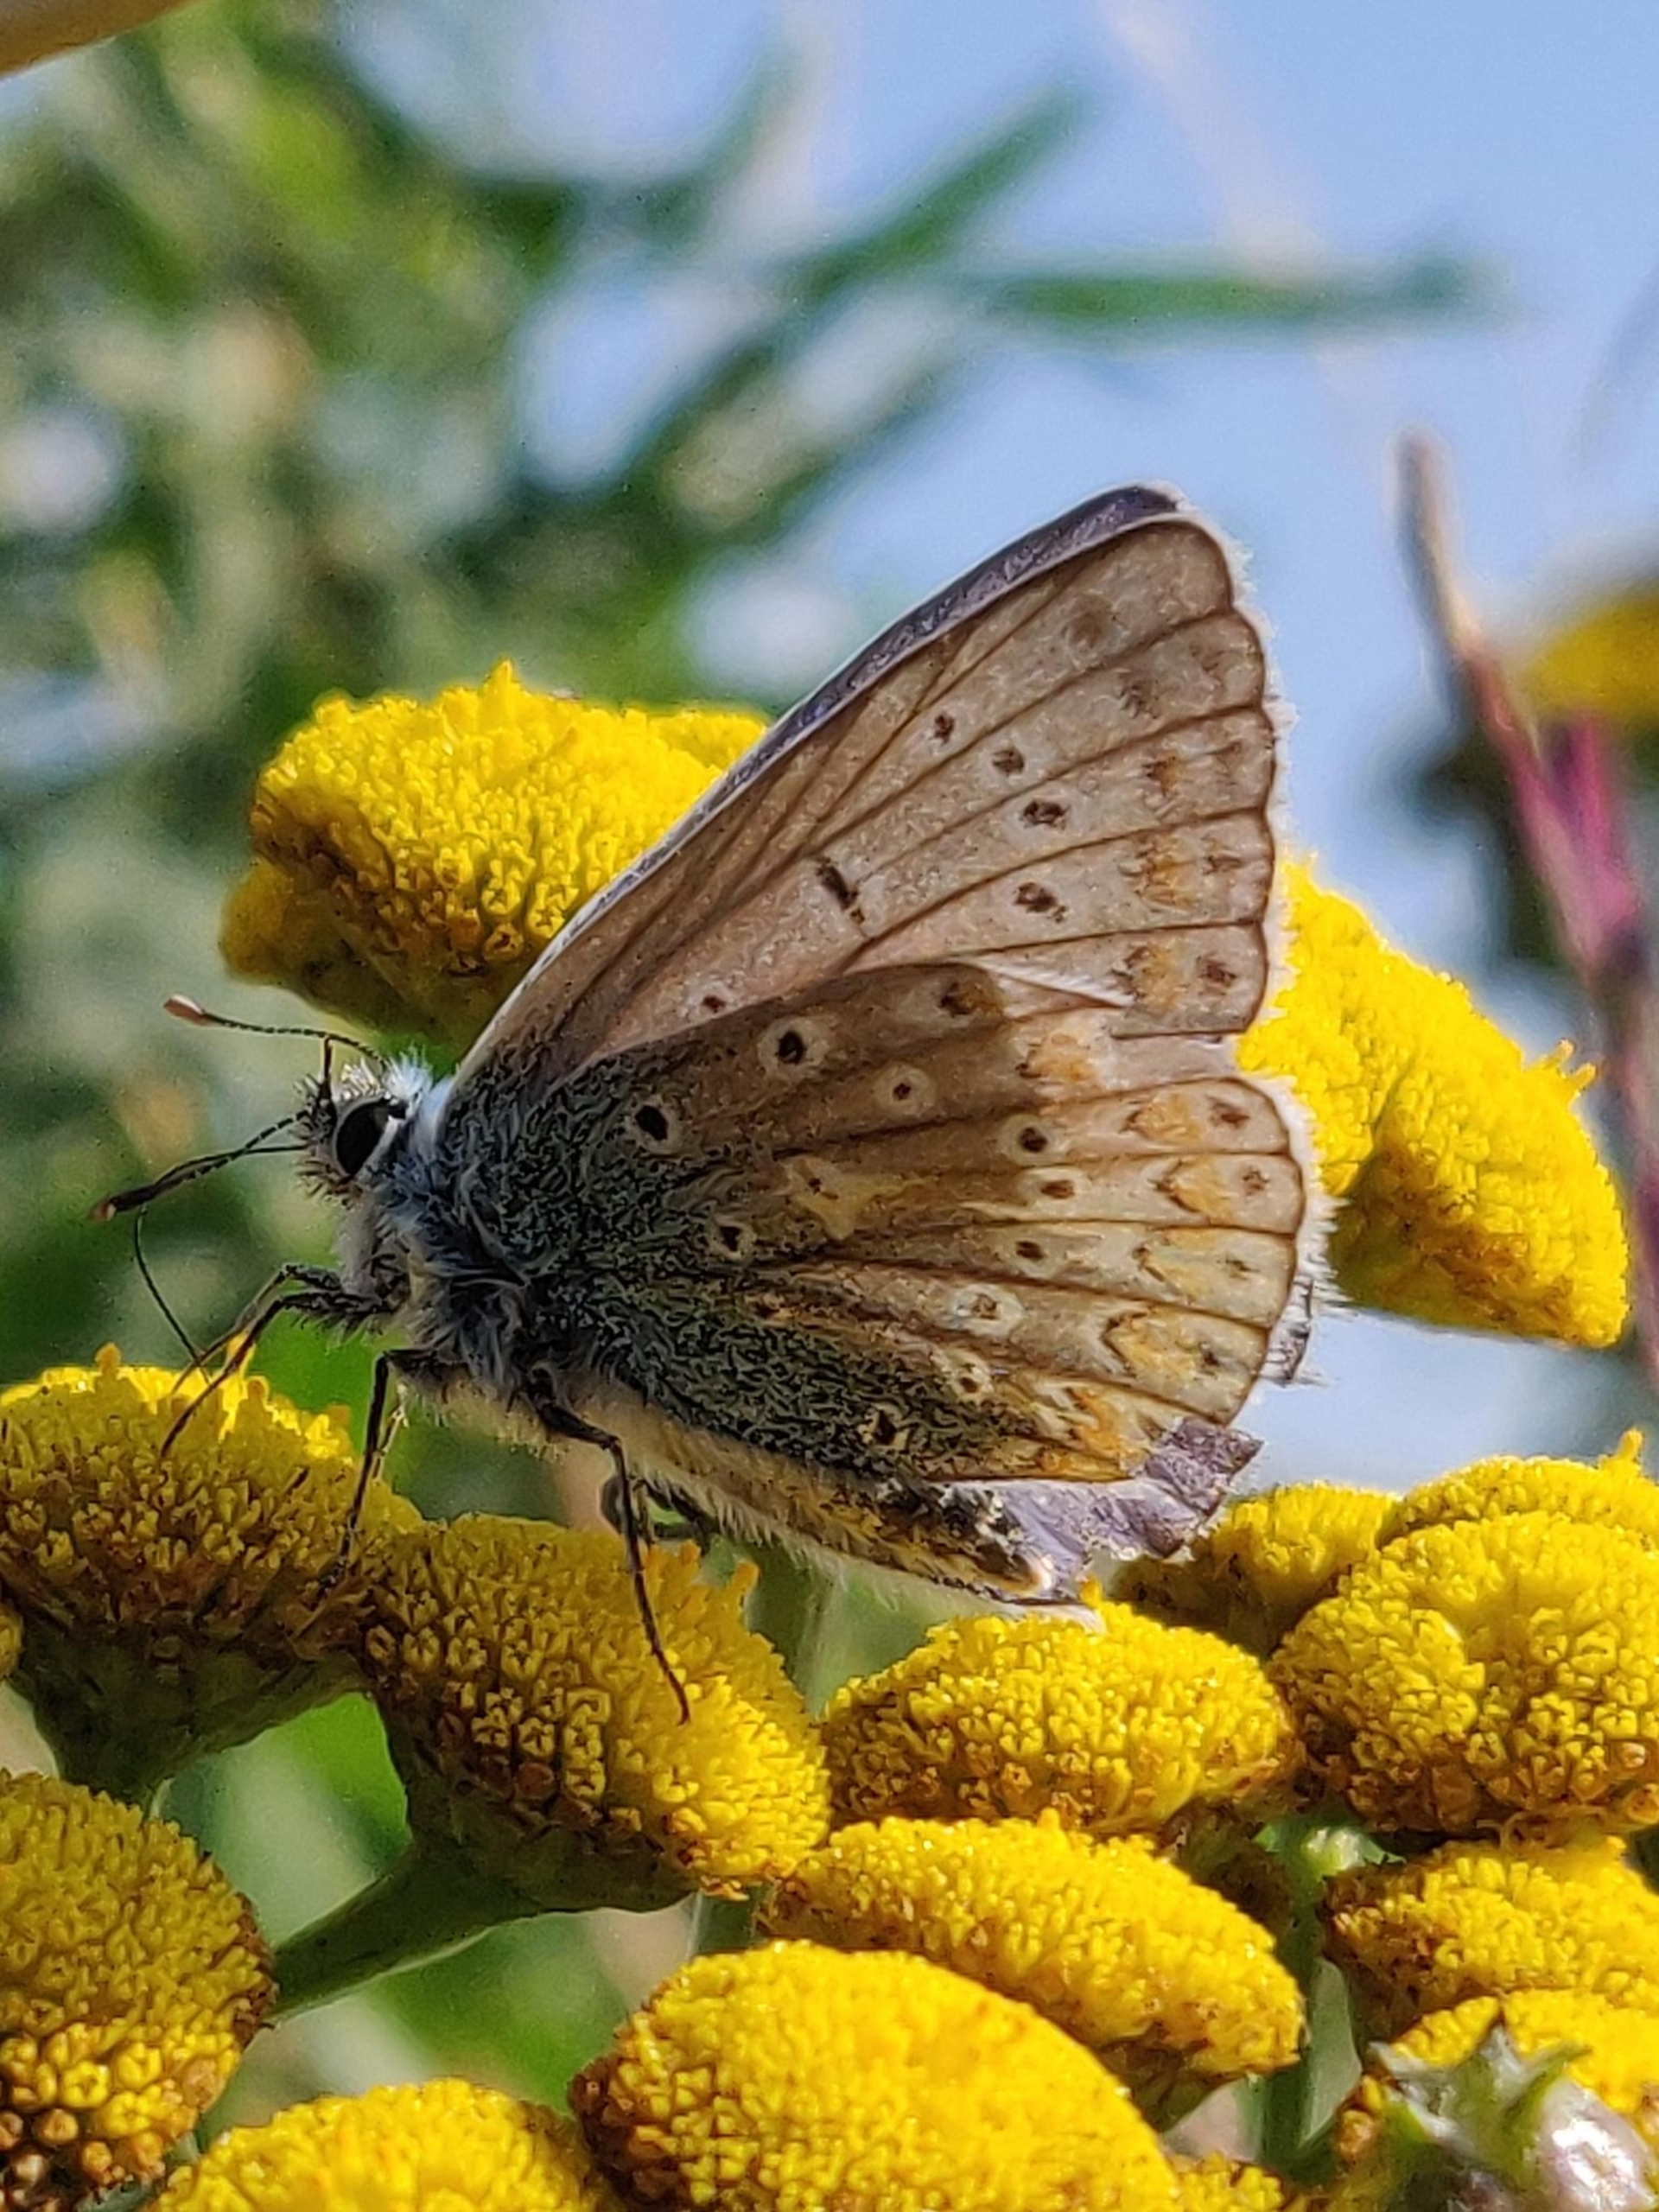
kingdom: Animalia
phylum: Arthropoda
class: Insecta
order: Lepidoptera
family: Lycaenidae
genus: Polyommatus
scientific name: Polyommatus icarus
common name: Almindelig blåfugl
